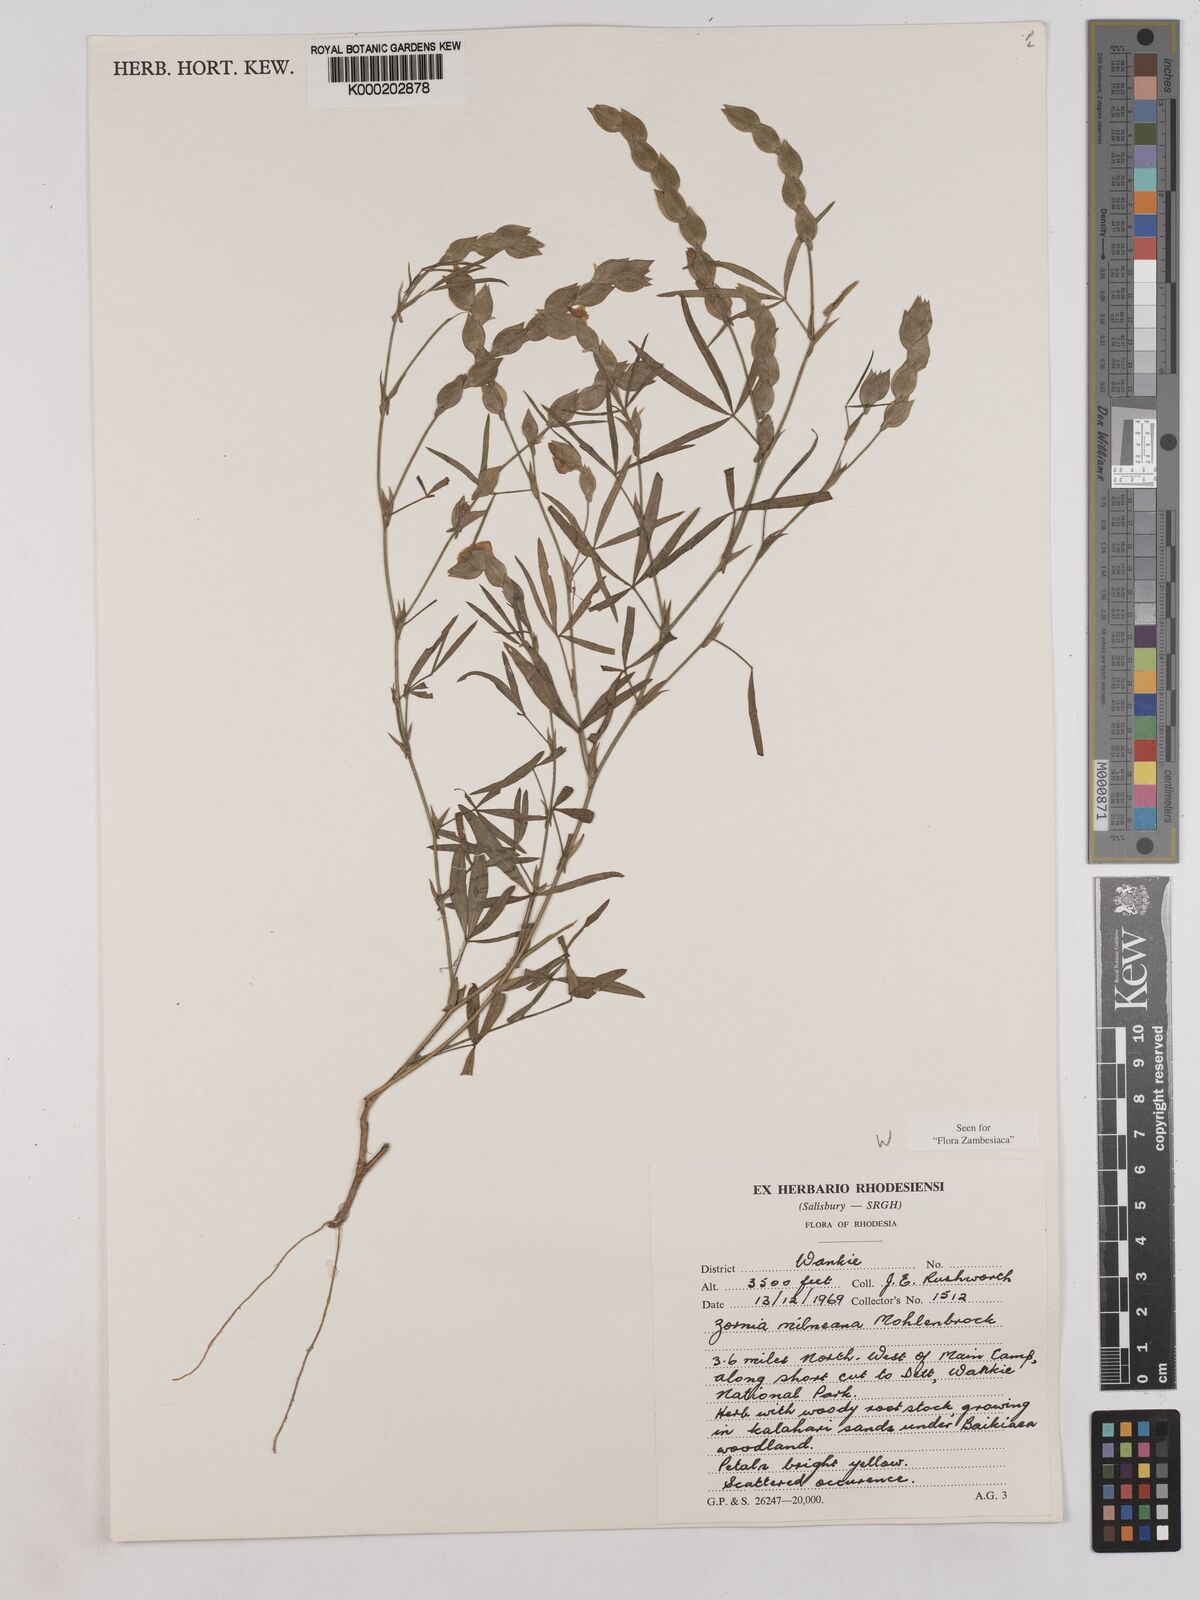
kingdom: Plantae
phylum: Tracheophyta
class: Magnoliopsida
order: Fabales
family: Fabaceae
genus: Zornia
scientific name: Zornia milneana
